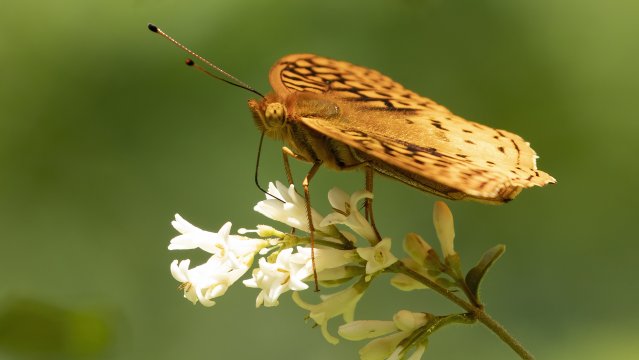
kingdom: Animalia
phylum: Arthropoda
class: Insecta
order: Lepidoptera
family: Nymphalidae
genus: Speyeria
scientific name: Speyeria cybele
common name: Great Spangled Fritillary
